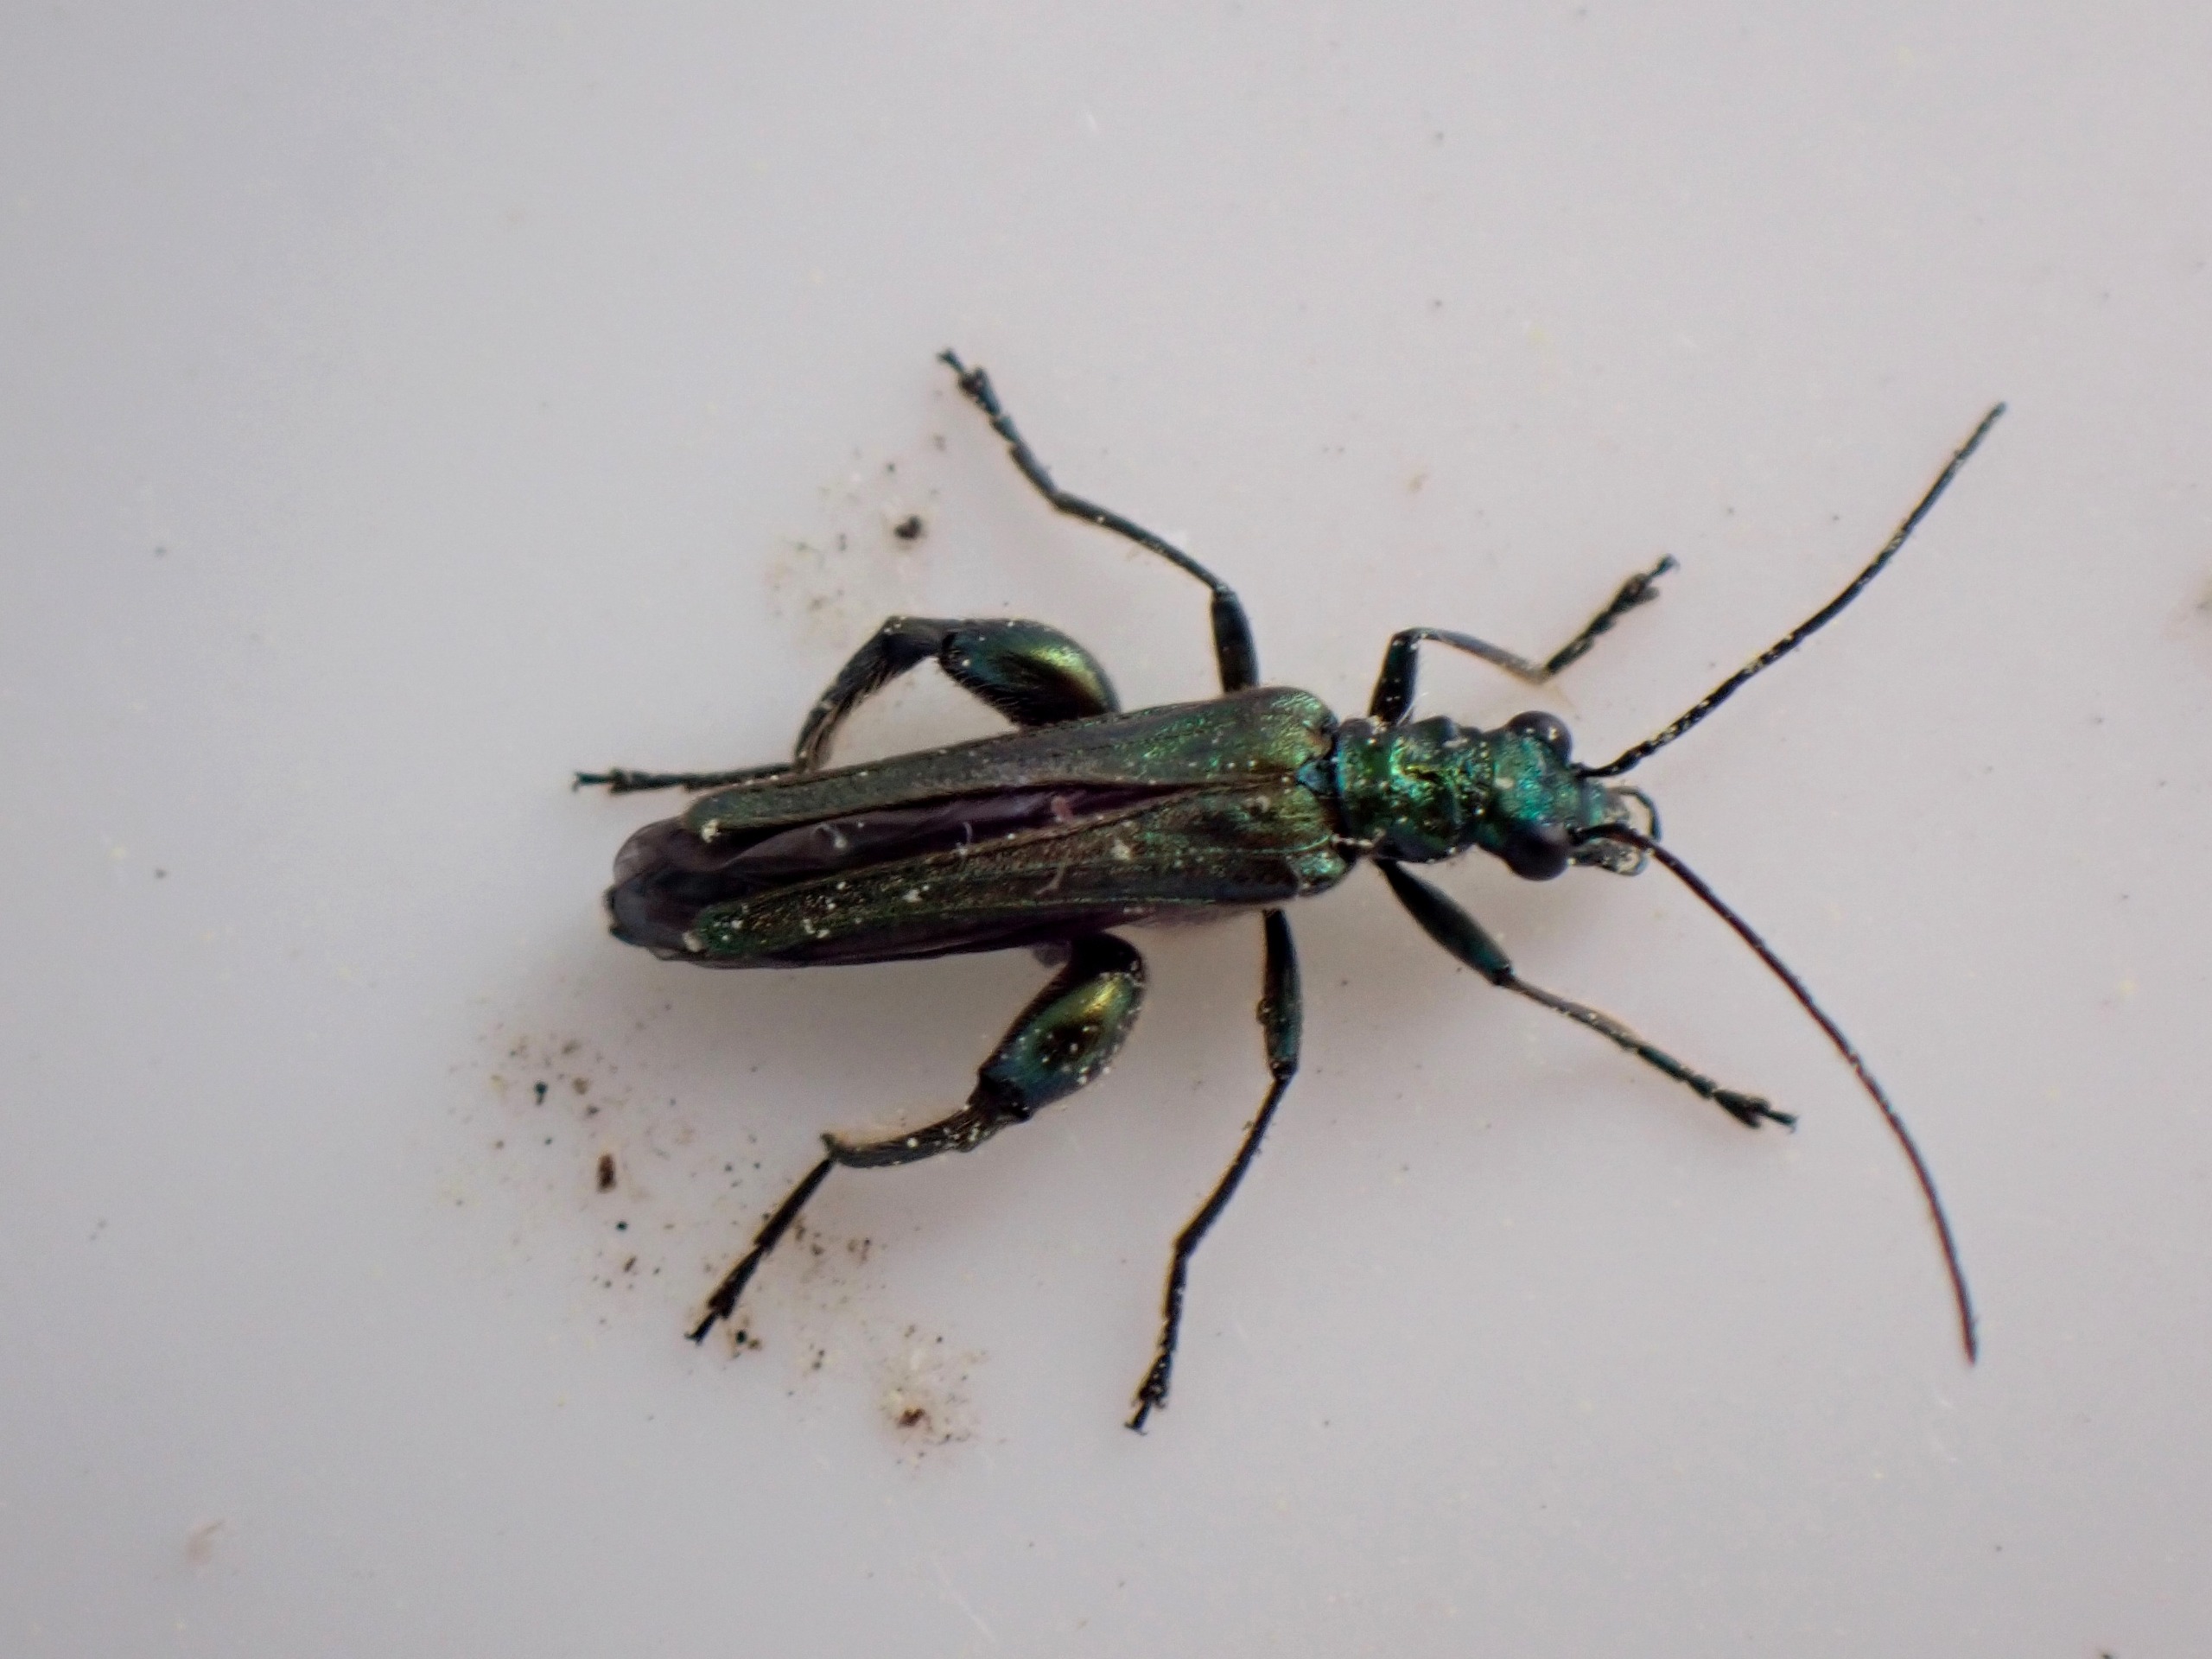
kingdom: Animalia
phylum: Arthropoda
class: Insecta
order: Coleoptera
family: Oedemeridae
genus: Oedemera
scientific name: Oedemera nobilis
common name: Tyklårssolbille
